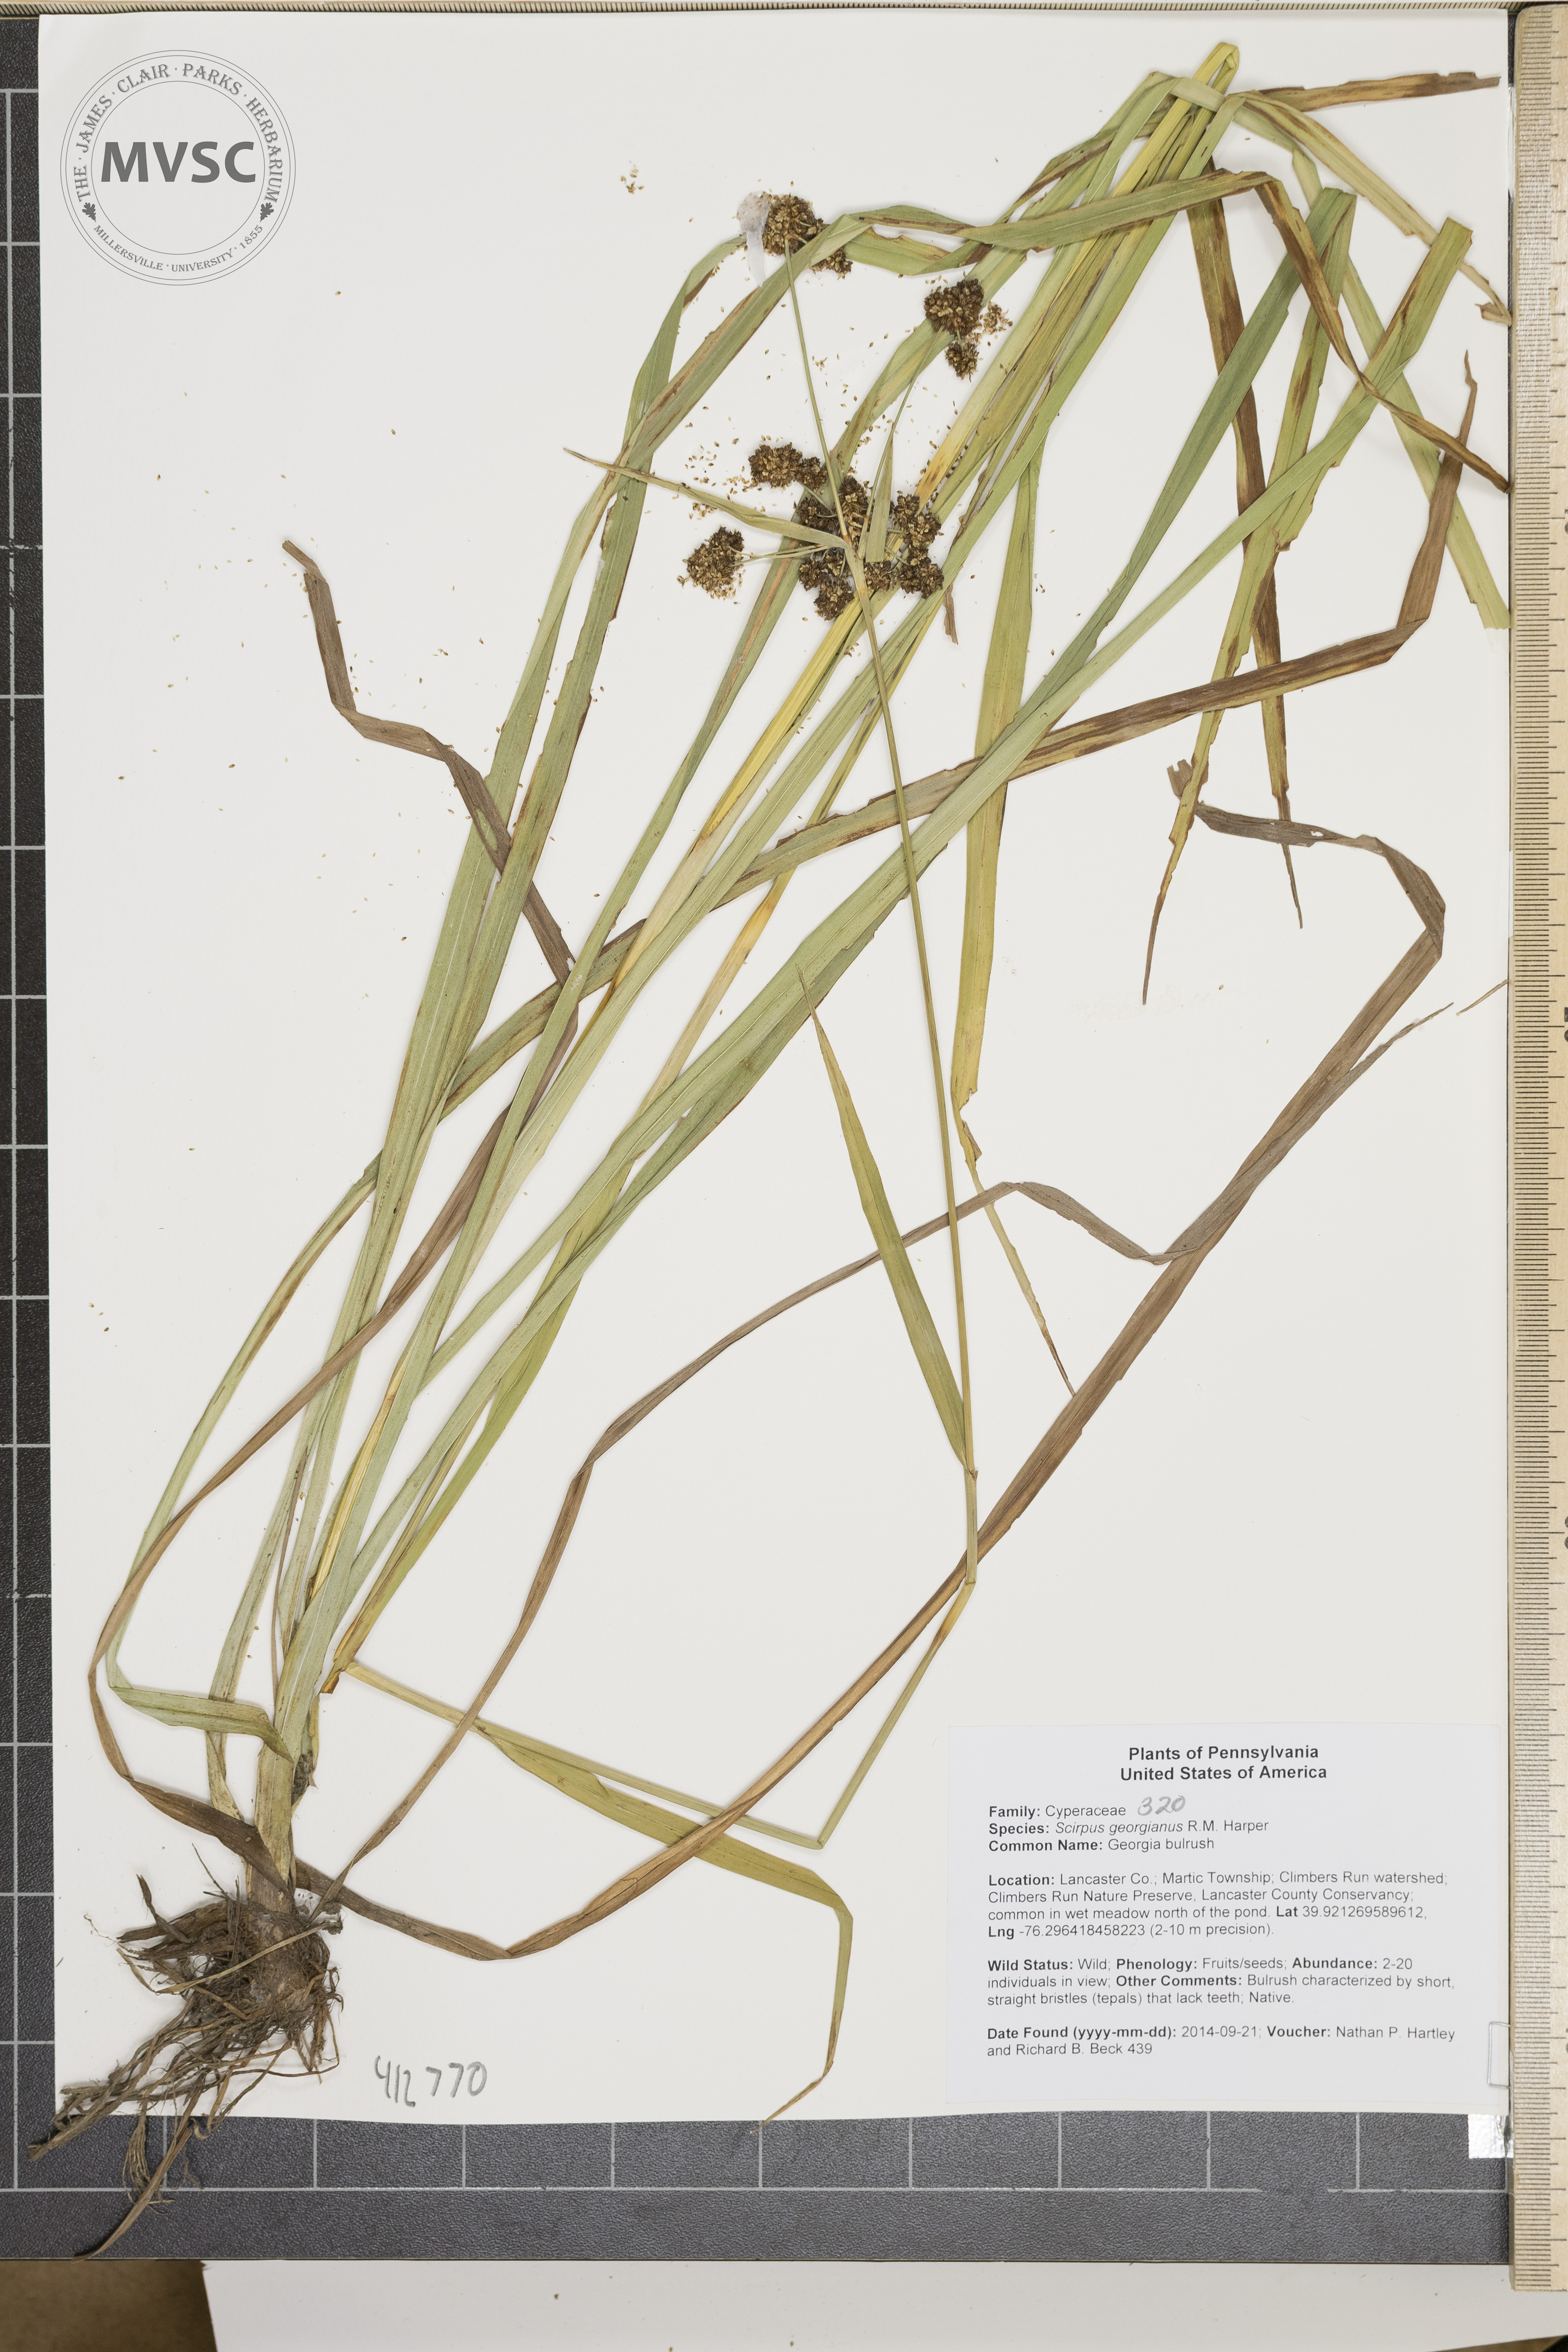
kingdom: Plantae
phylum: Tracheophyta
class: Liliopsida
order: Poales
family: Cyperaceae
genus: Scirpus
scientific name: Scirpus georgianus
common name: Georgia bulrush
